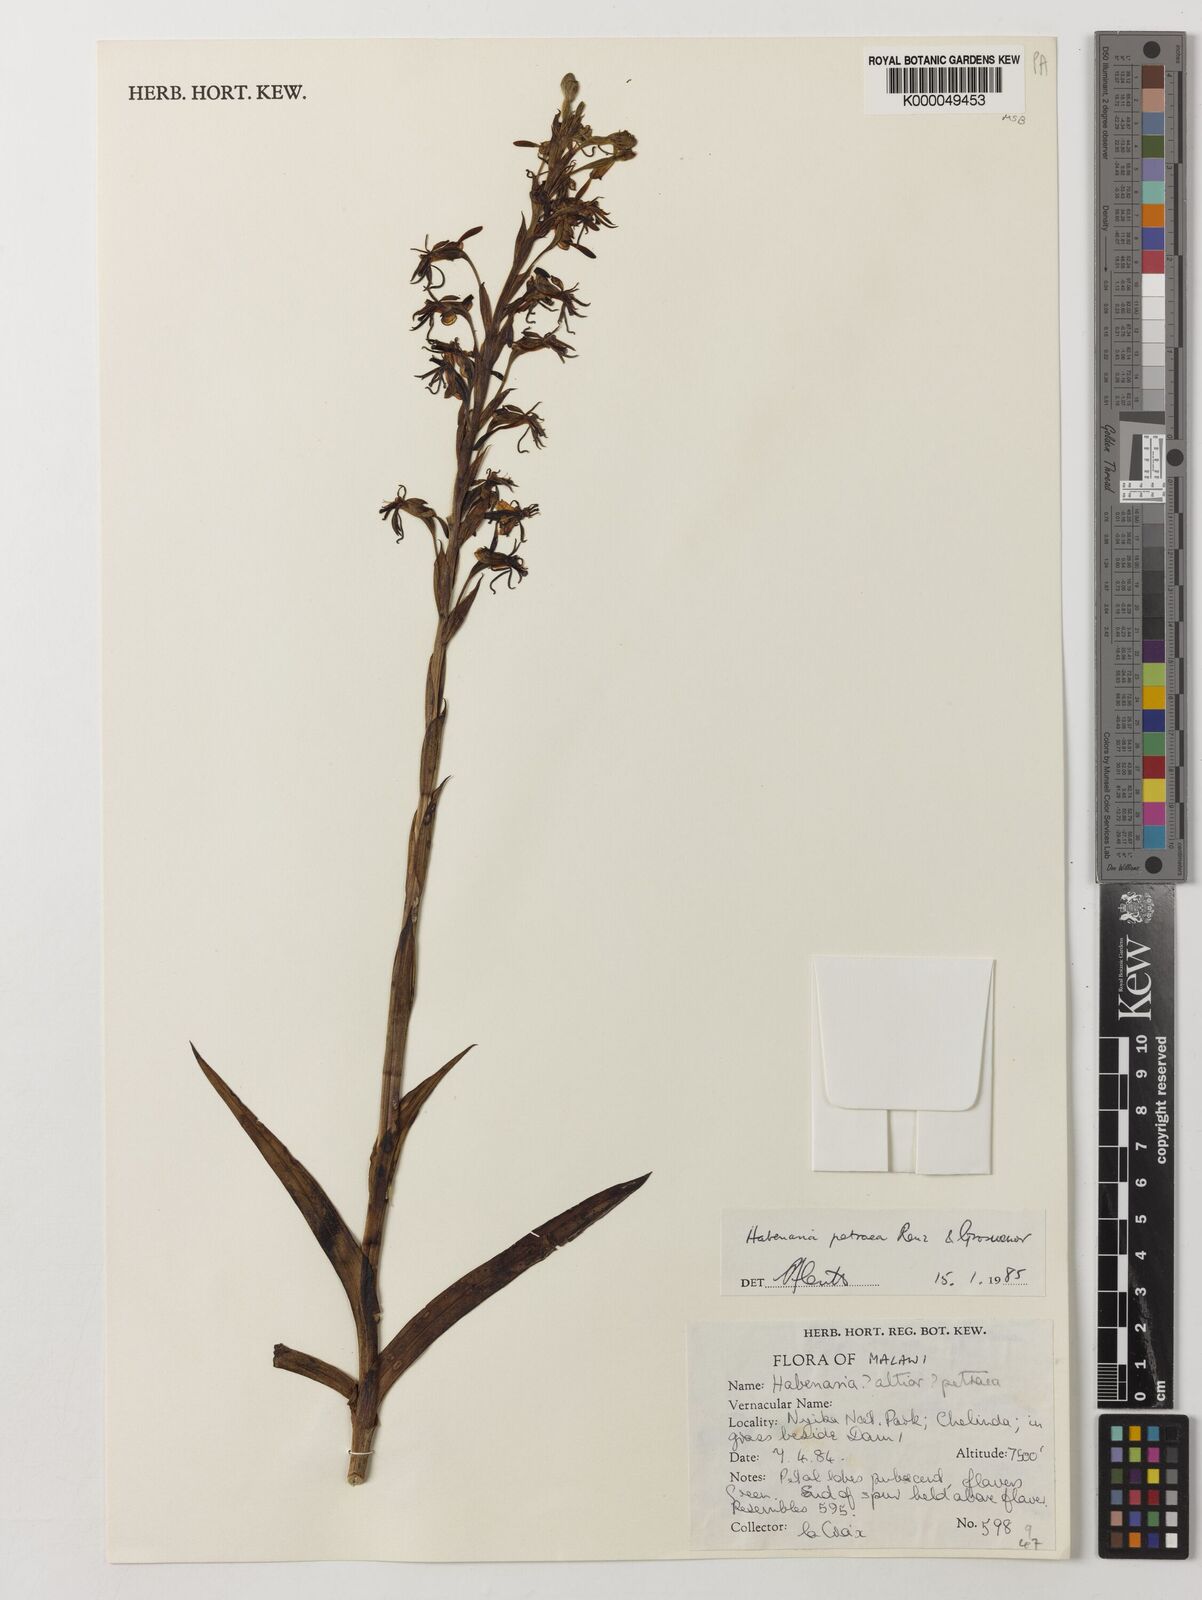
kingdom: Plantae
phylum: Tracheophyta
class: Liliopsida
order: Asparagales
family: Orchidaceae
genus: Habenaria
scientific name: Habenaria petraea
